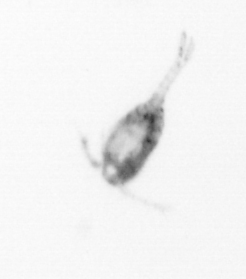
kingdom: Animalia
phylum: Arthropoda
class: Copepoda
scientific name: Copepoda
